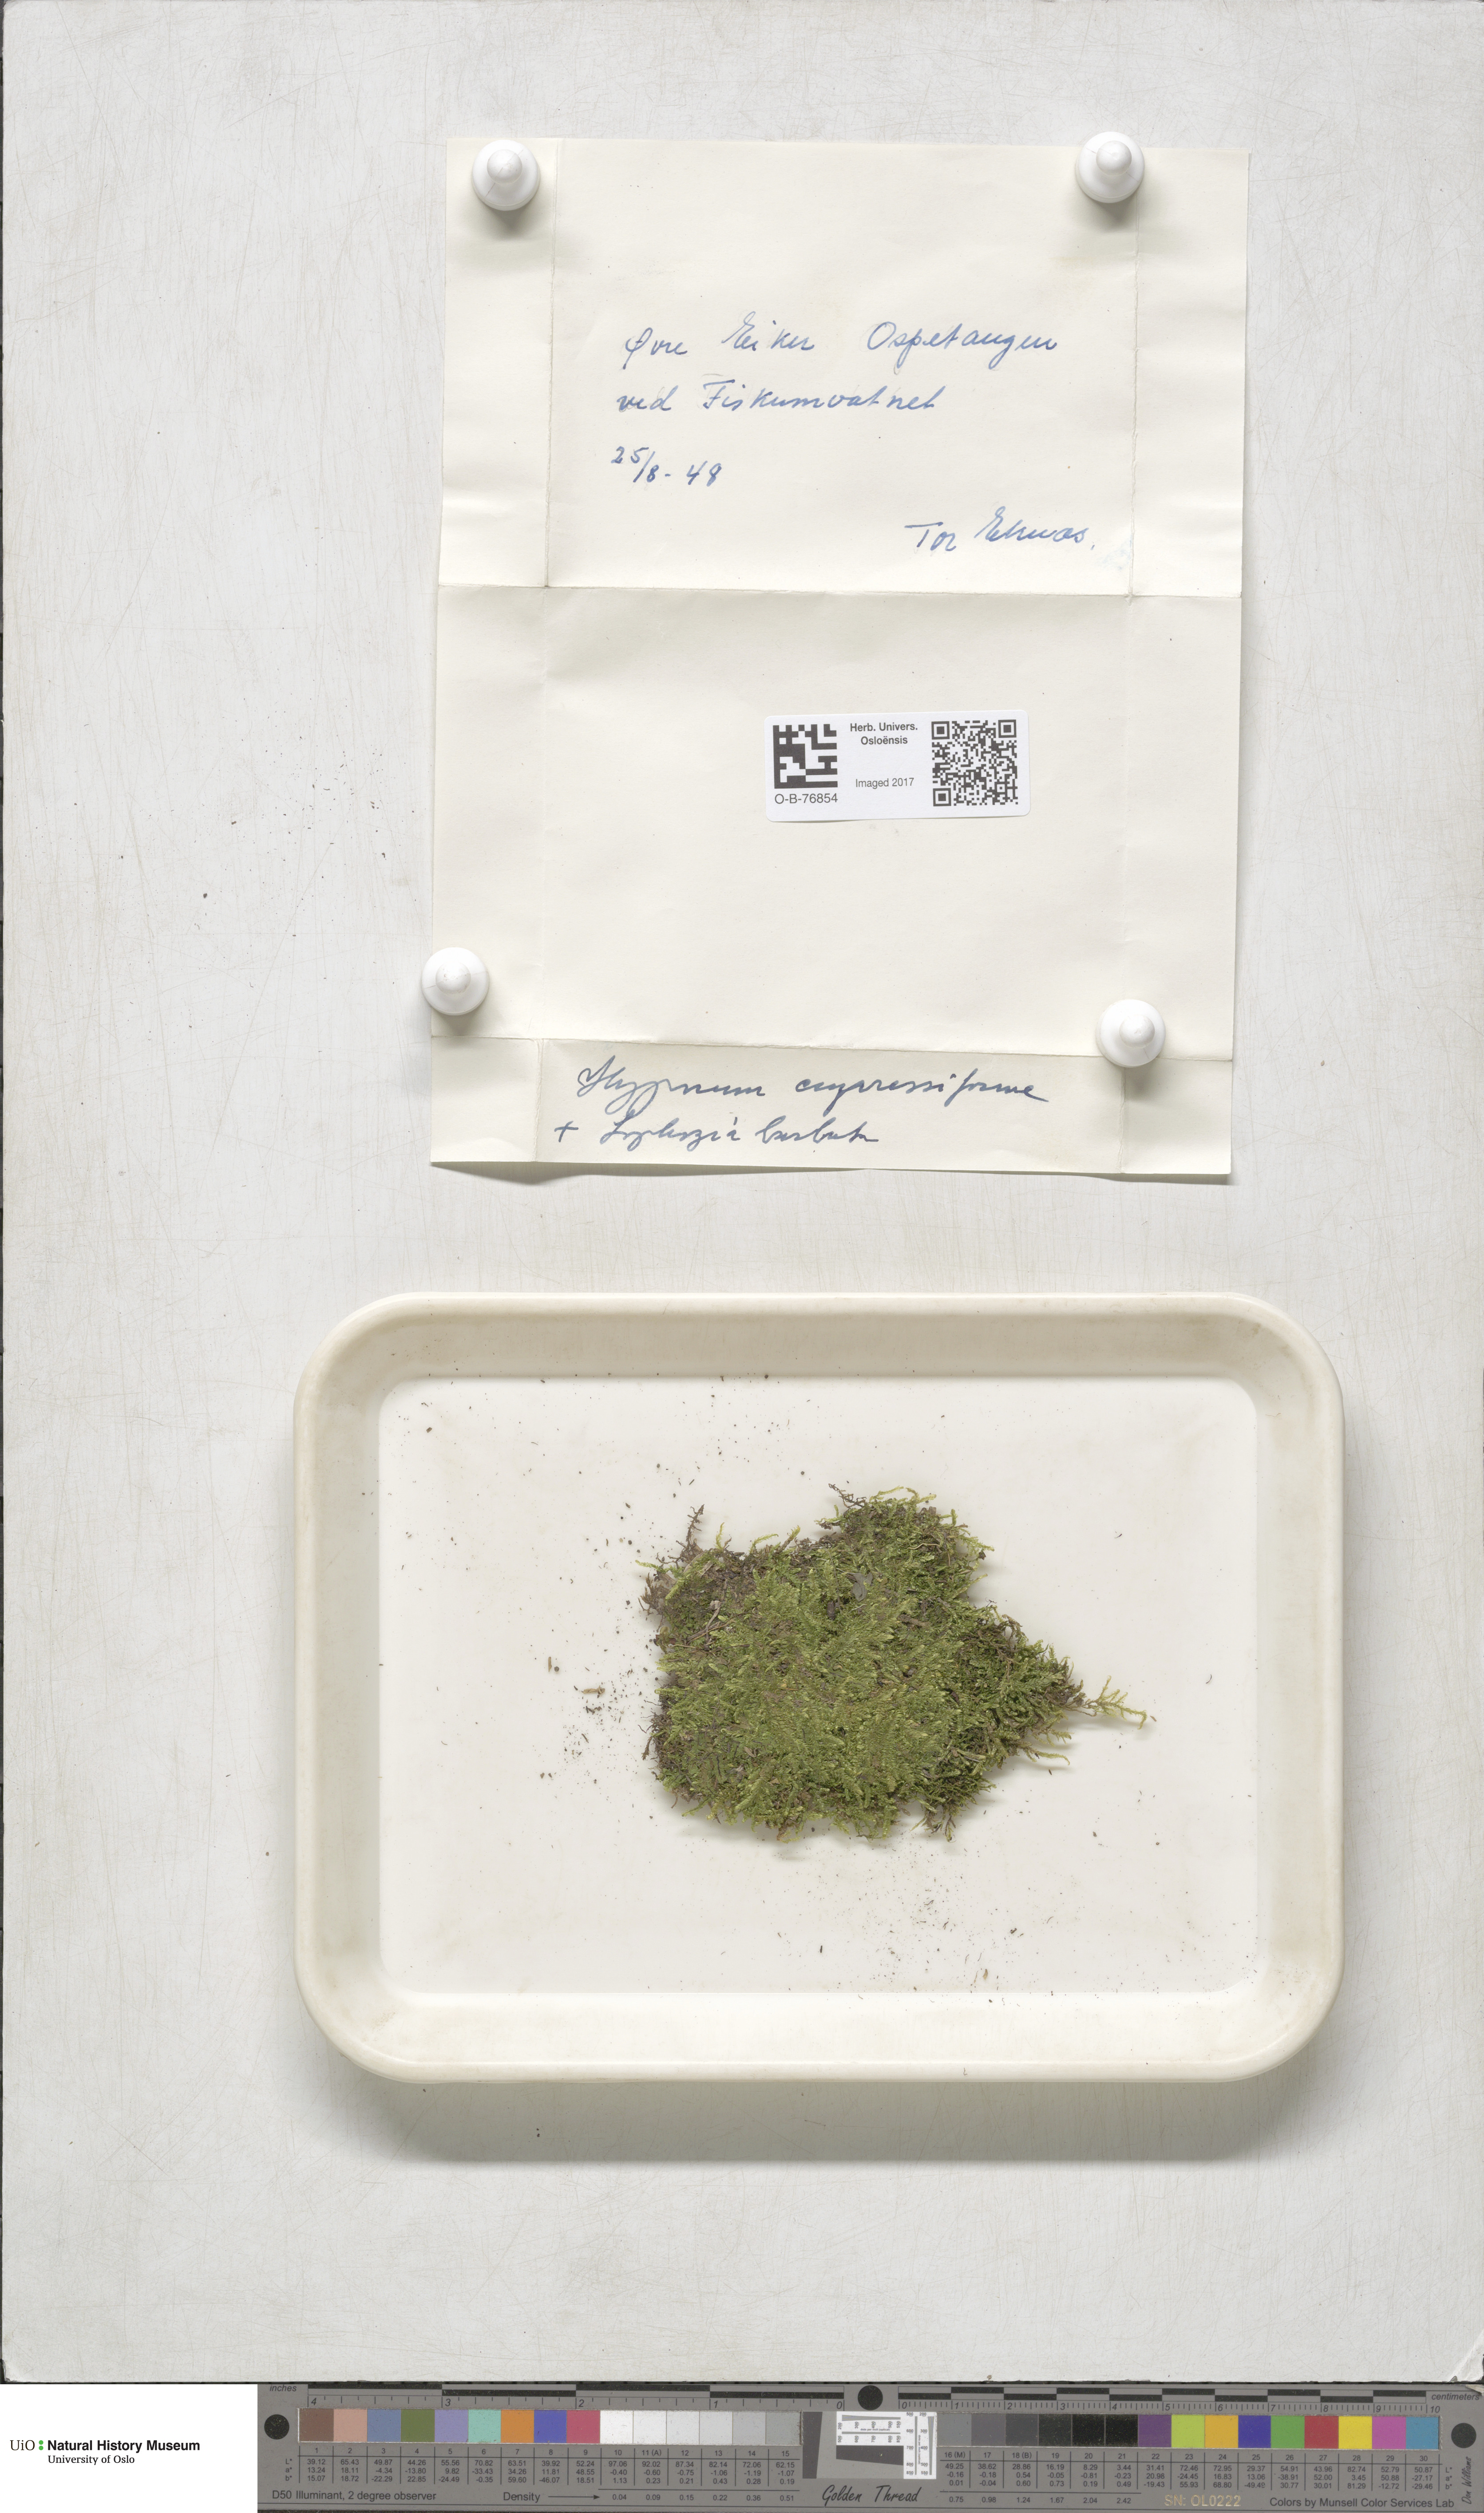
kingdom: Plantae
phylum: Bryophyta
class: Bryopsida
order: Hypnales
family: Hypnaceae
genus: Hypnum
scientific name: Hypnum cupressiforme
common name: Cypress-leaved plait-moss
